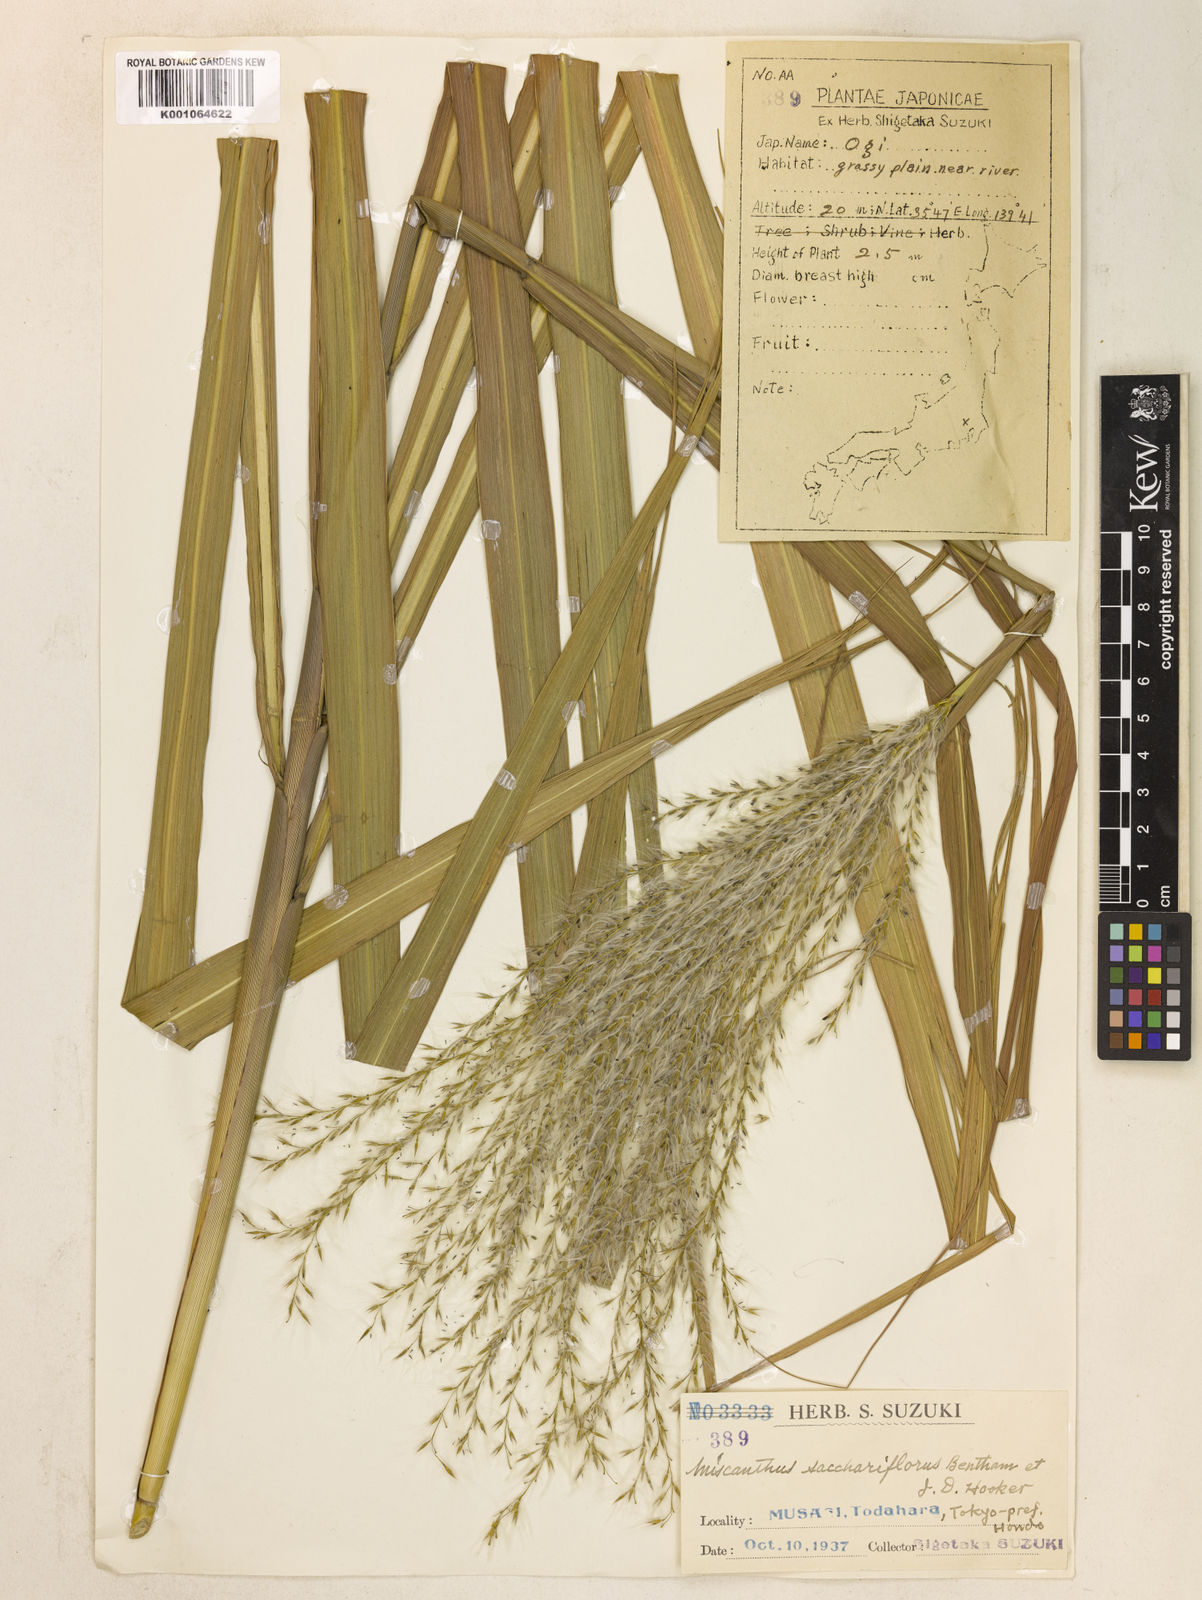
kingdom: Plantae
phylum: Tracheophyta
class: Liliopsida
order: Poales
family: Poaceae
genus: Miscanthus
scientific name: Miscanthus
